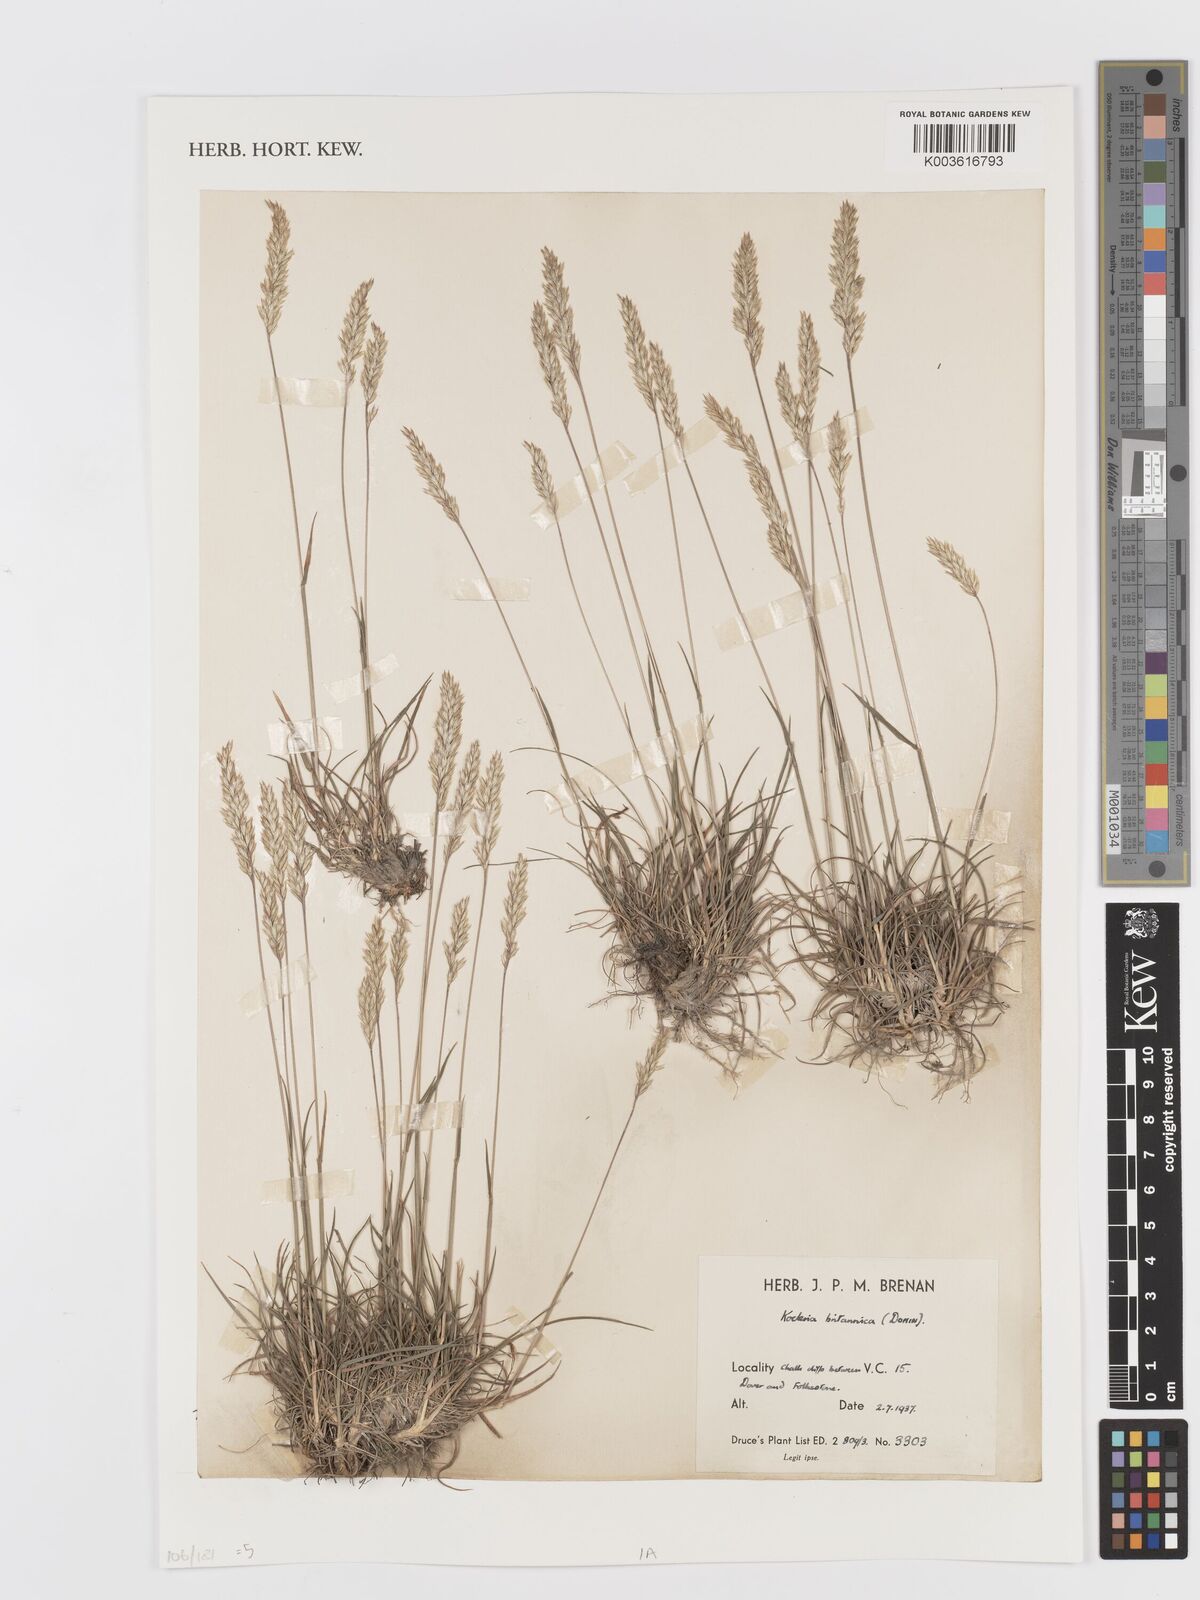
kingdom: Plantae
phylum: Tracheophyta
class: Liliopsida
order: Poales
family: Poaceae
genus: Koeleria
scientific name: Koeleria macrantha
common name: Crested hair-grass
